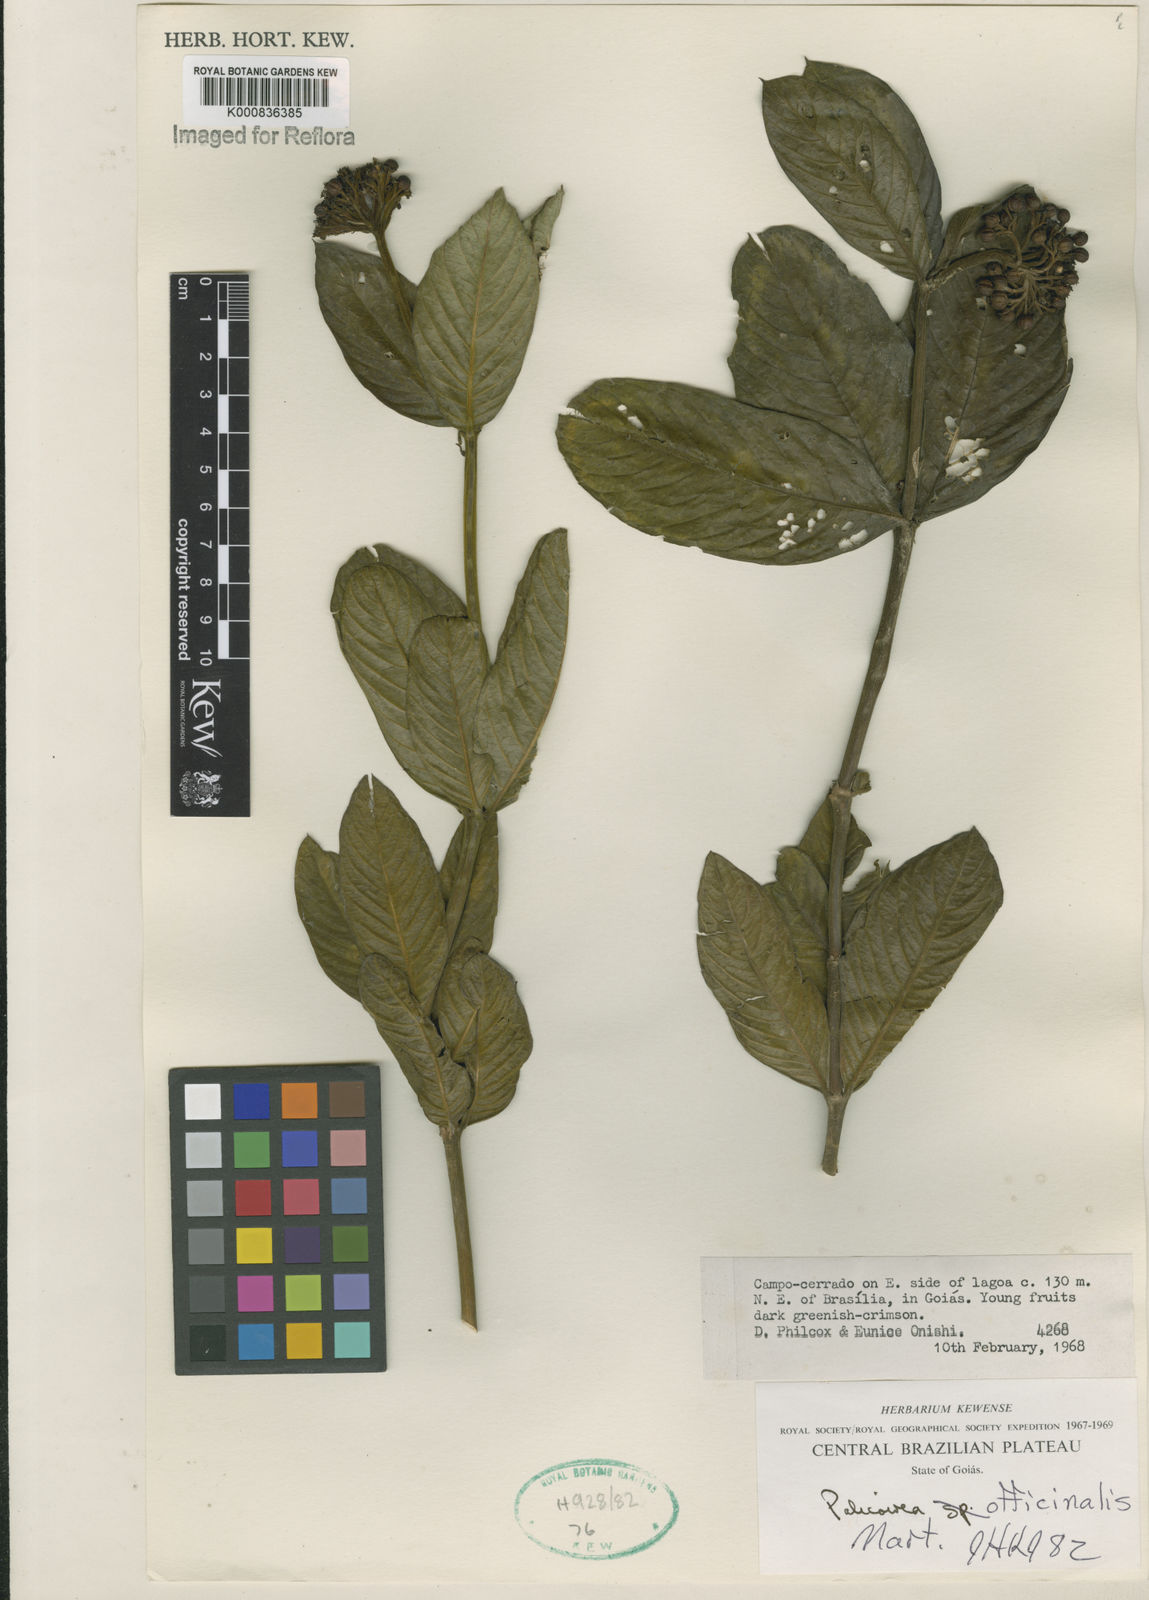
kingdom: Plantae
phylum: Tracheophyta
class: Magnoliopsida
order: Gentianales
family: Rubiaceae
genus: Palicourea
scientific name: Palicourea officinalis
